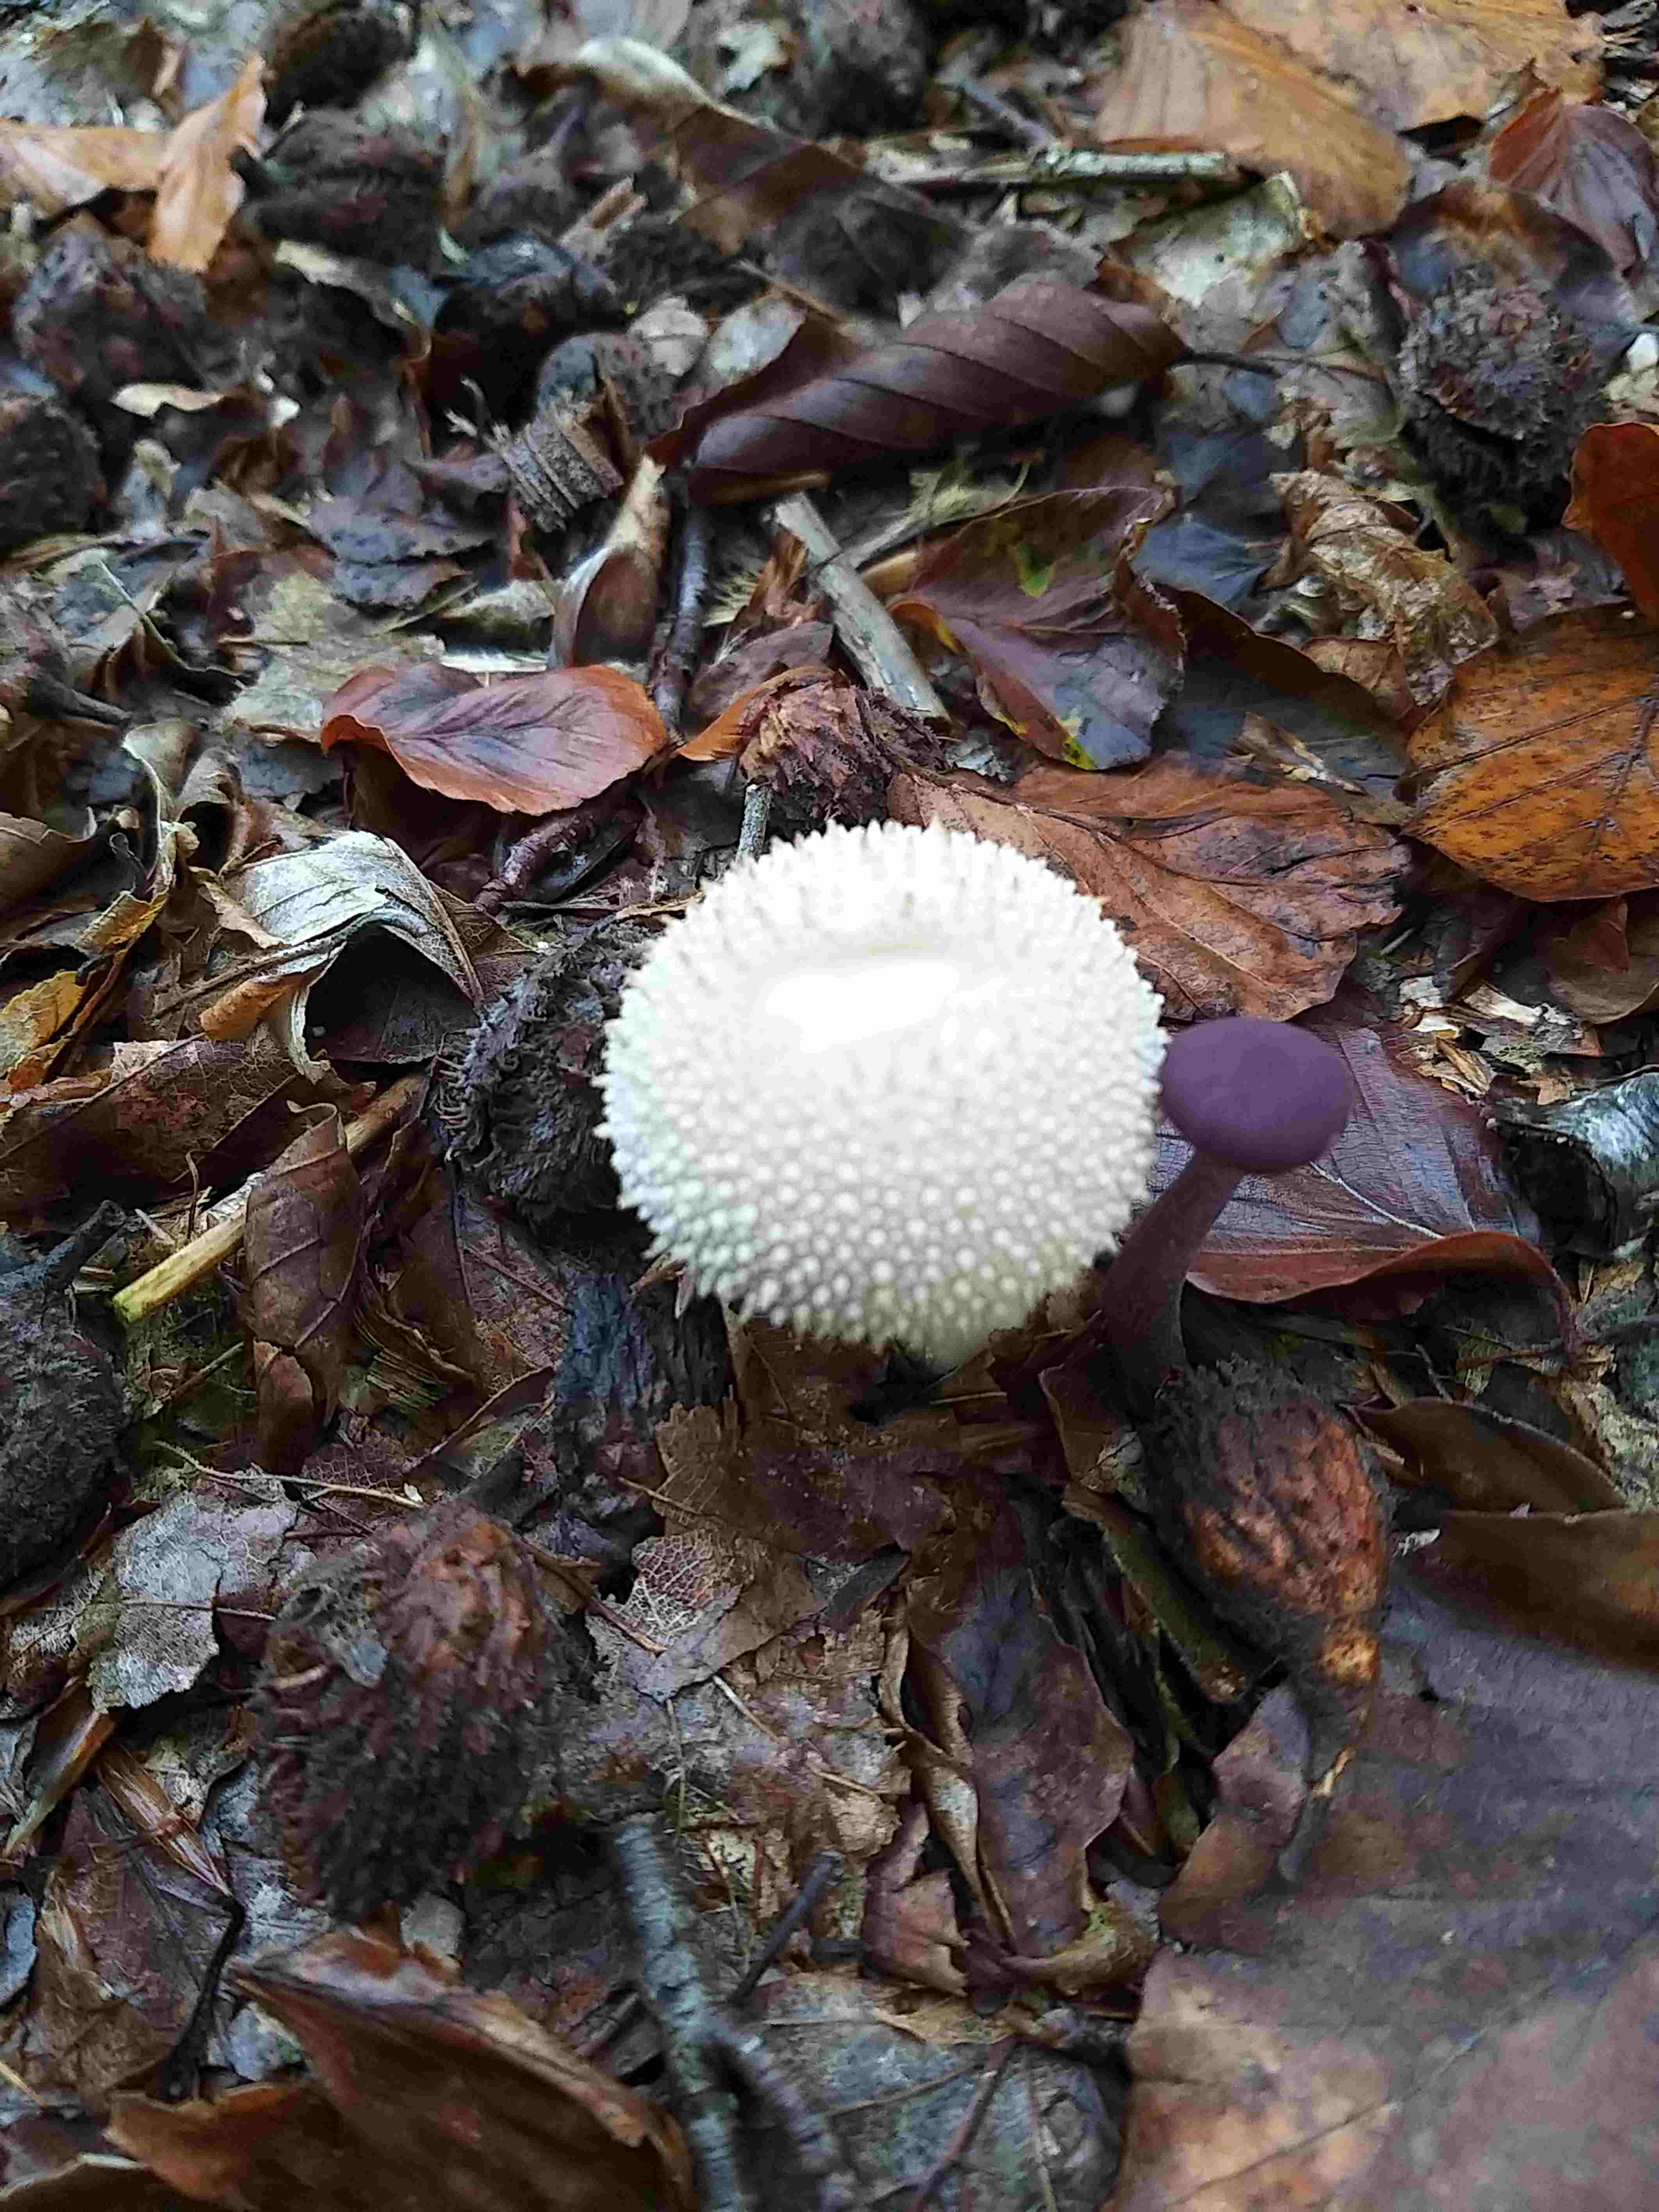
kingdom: Fungi
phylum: Basidiomycota
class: Agaricomycetes
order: Agaricales
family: Lycoperdaceae
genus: Lycoperdon
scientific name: Lycoperdon perlatum
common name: krystal-støvbold
